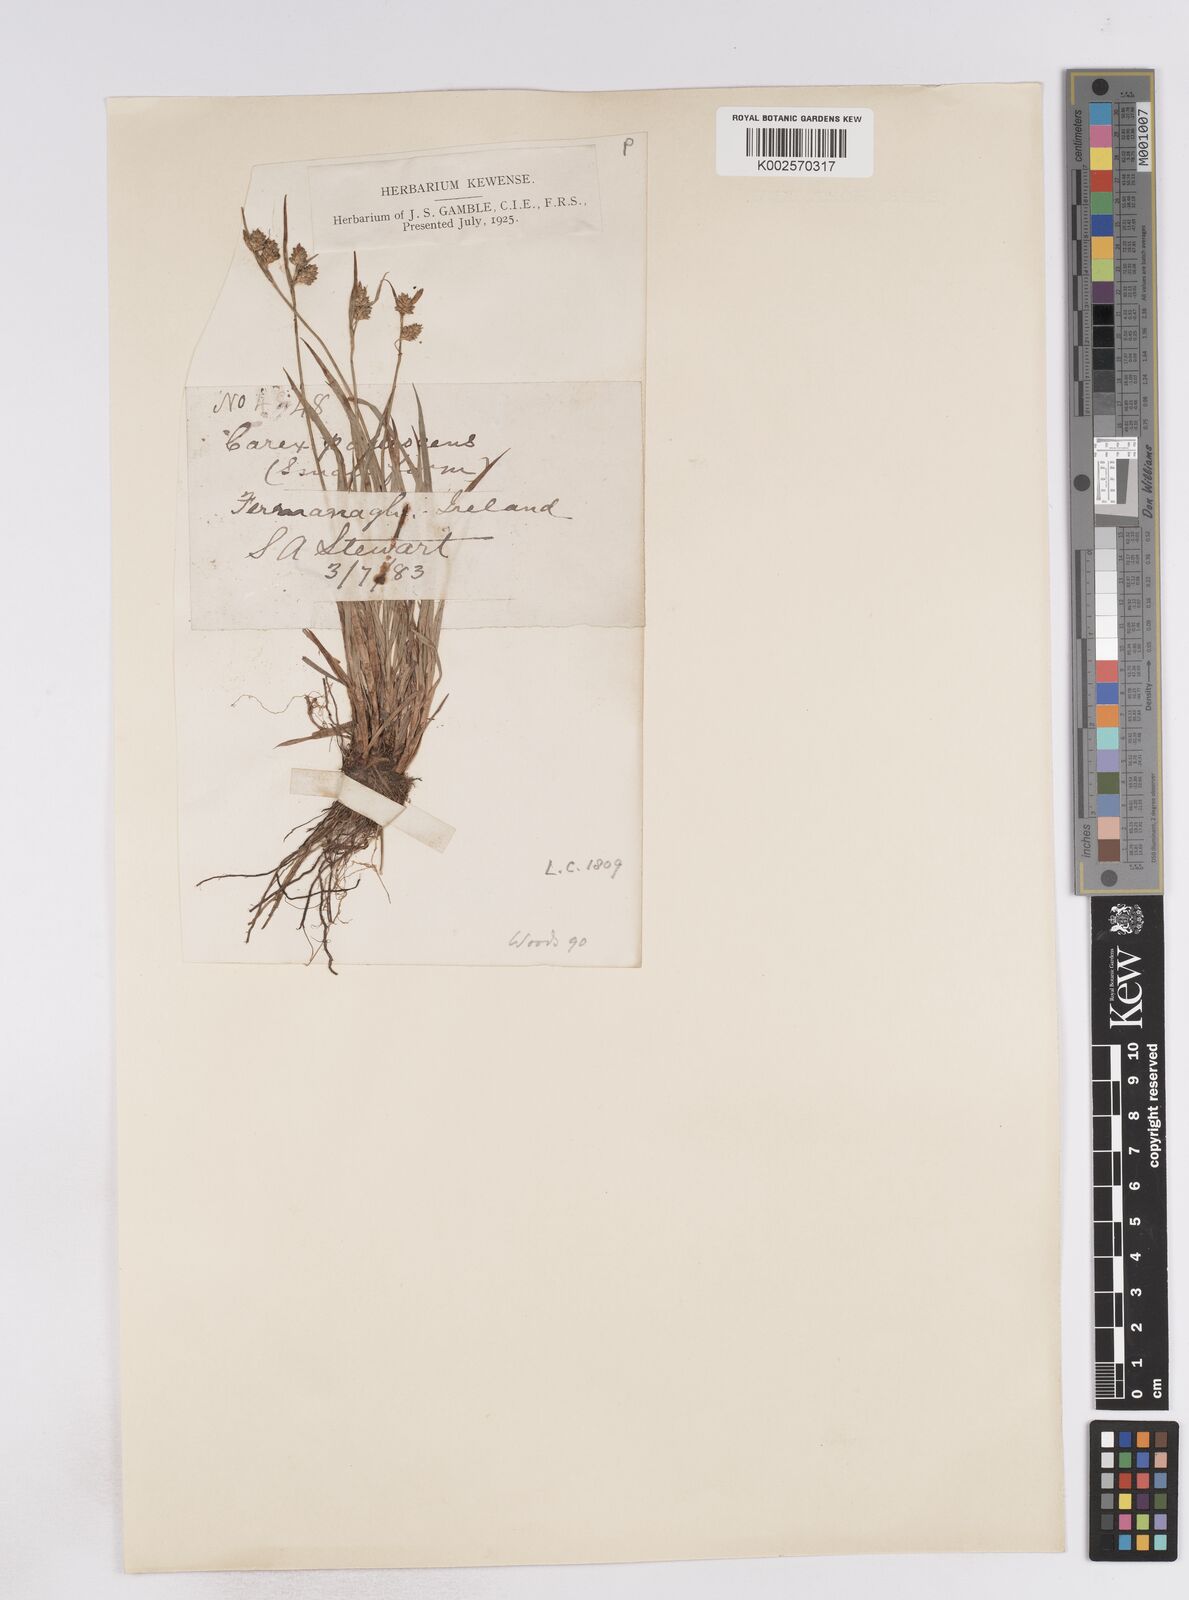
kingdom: Plantae
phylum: Tracheophyta
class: Liliopsida
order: Poales
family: Cyperaceae
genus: Carex
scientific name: Carex pallescens
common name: Pale sedge
